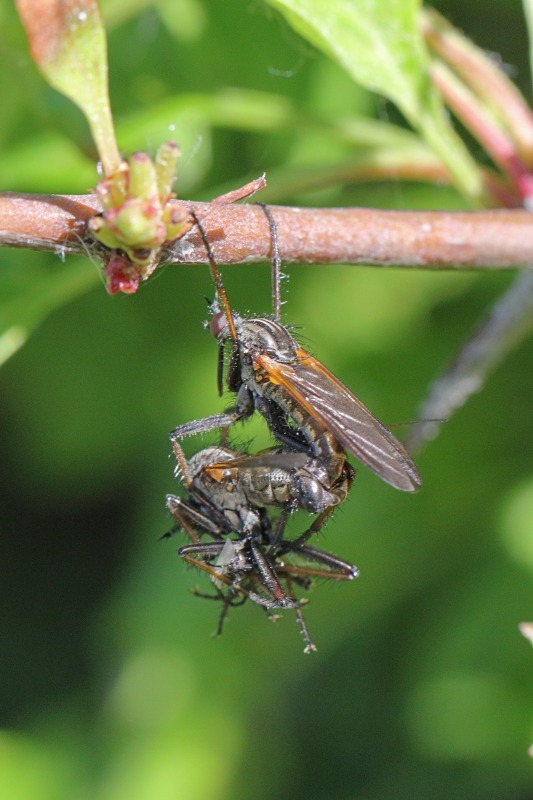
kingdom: Animalia
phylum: Arthropoda
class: Insecta
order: Diptera
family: Empididae
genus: Empis
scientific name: Empis tessellata
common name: Stor danseflue
